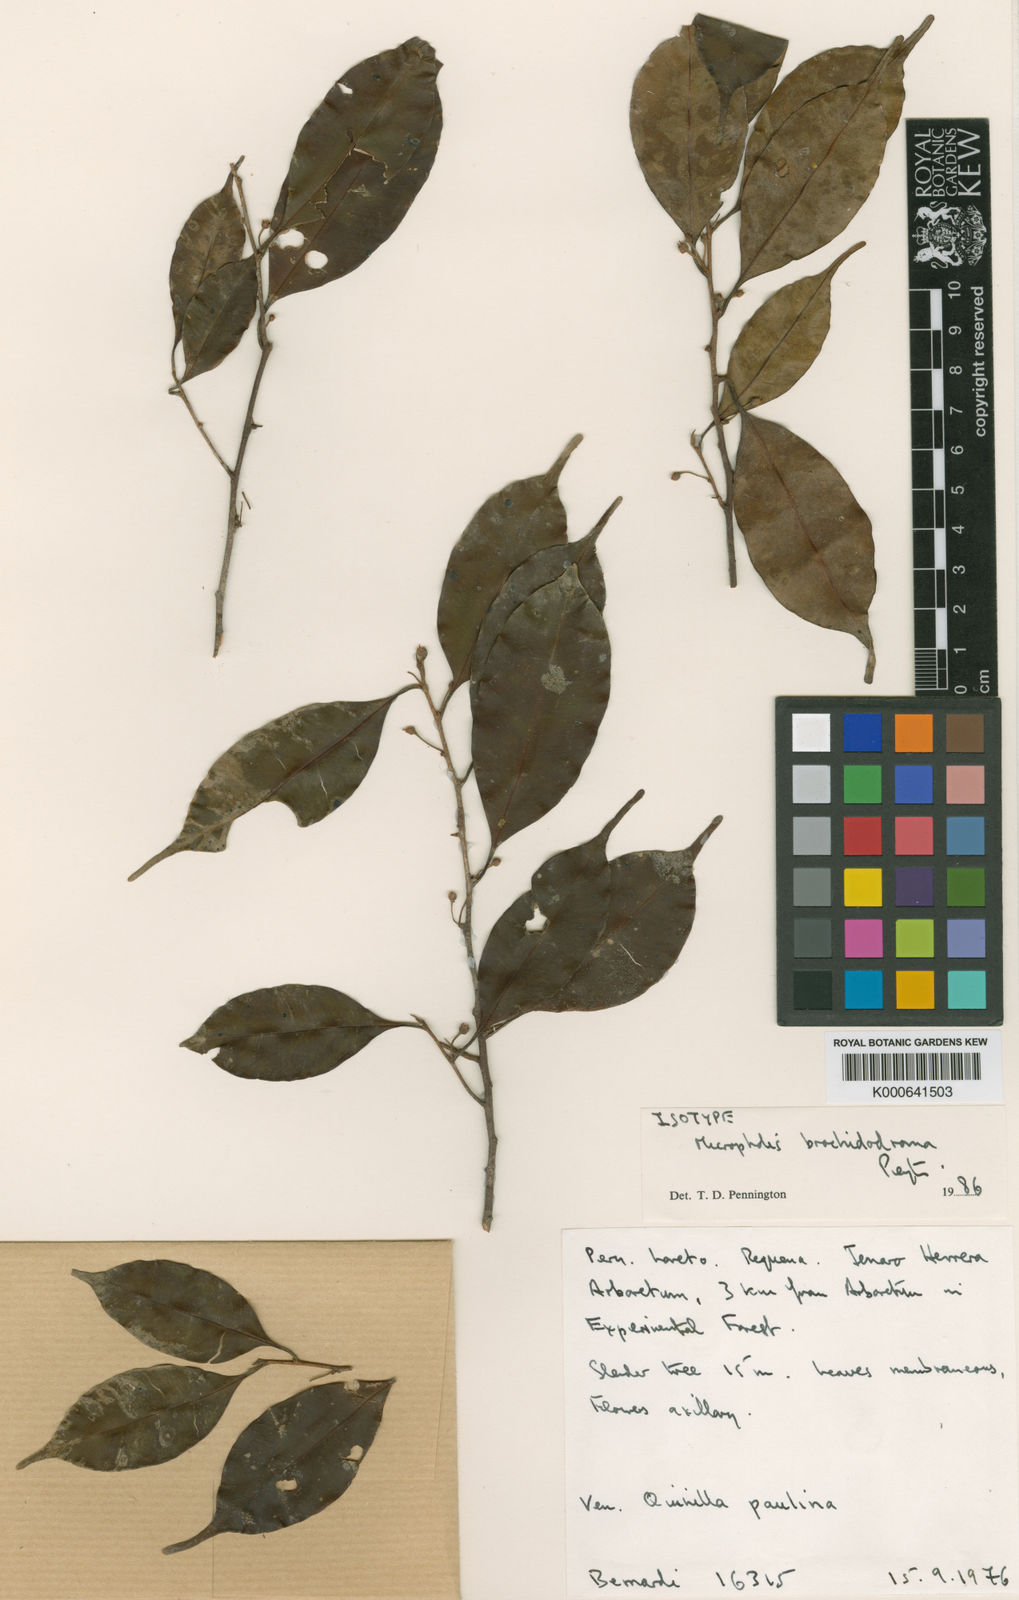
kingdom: Plantae
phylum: Tracheophyta
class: Magnoliopsida
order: Ericales
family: Sapotaceae
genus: Micropholis
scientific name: Micropholis brochidodroma
